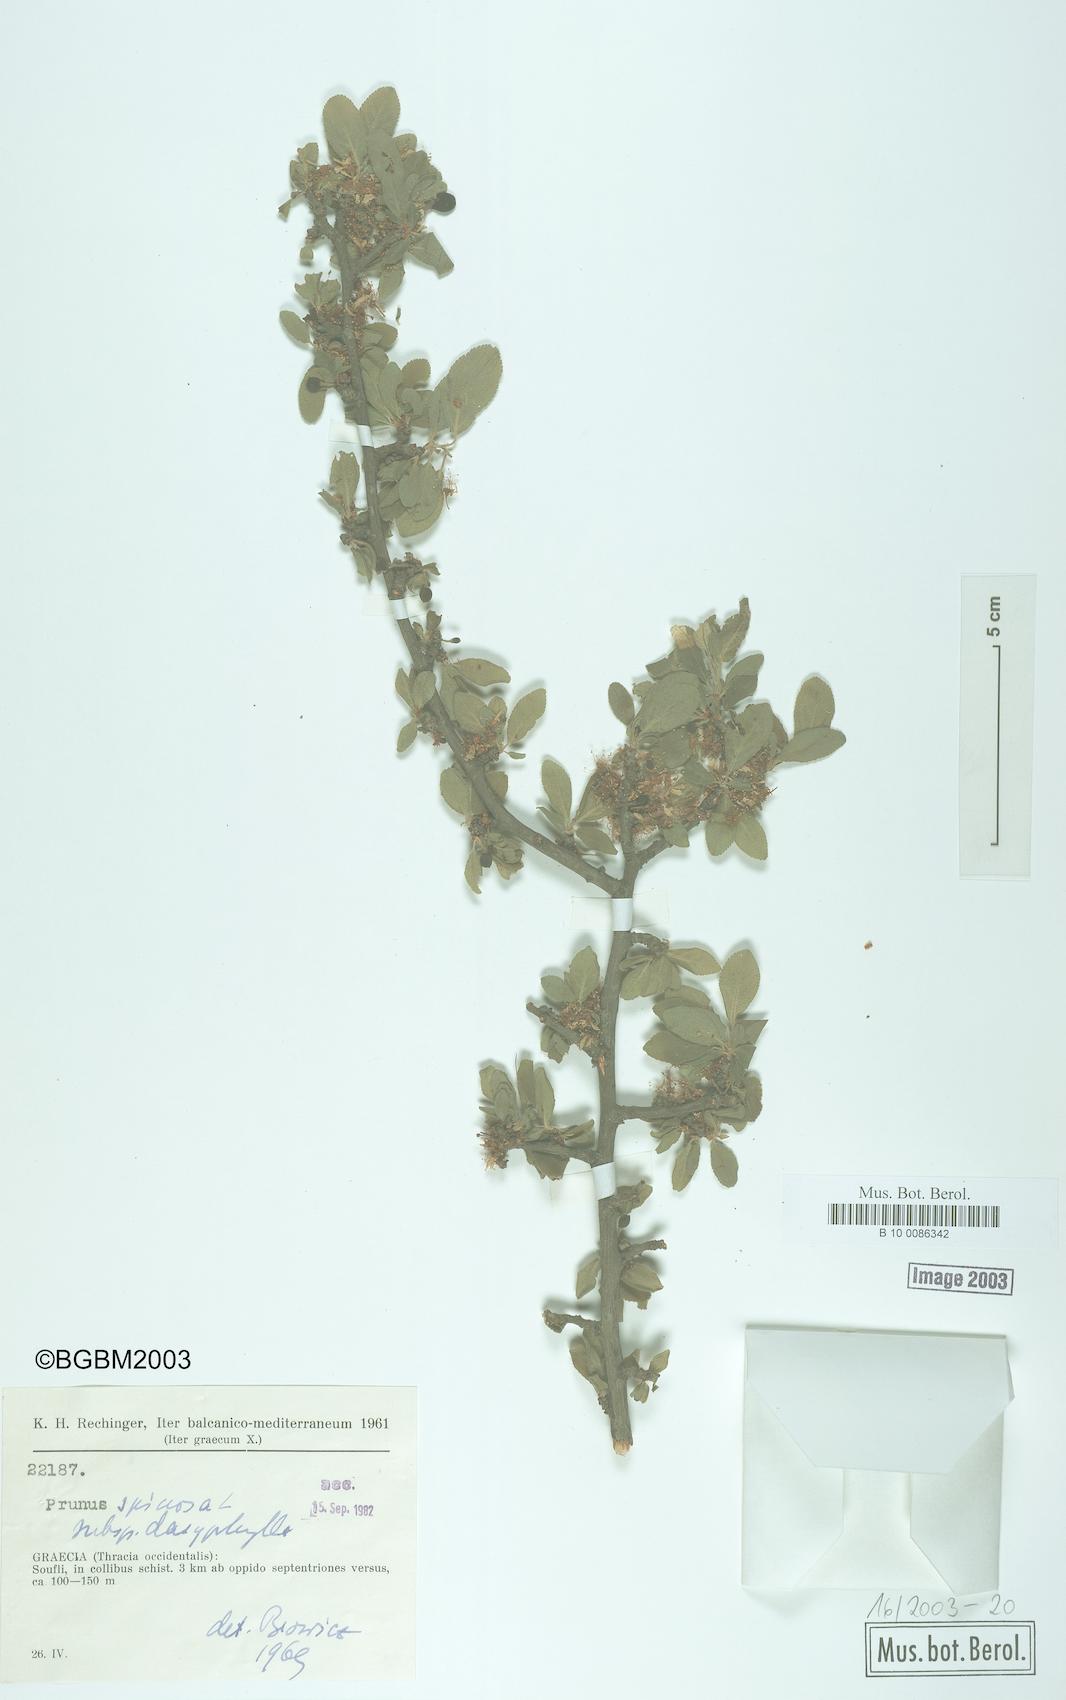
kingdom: Plantae
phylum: Tracheophyta
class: Magnoliopsida
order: Rosales
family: Rosaceae
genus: Prunus
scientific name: Prunus
